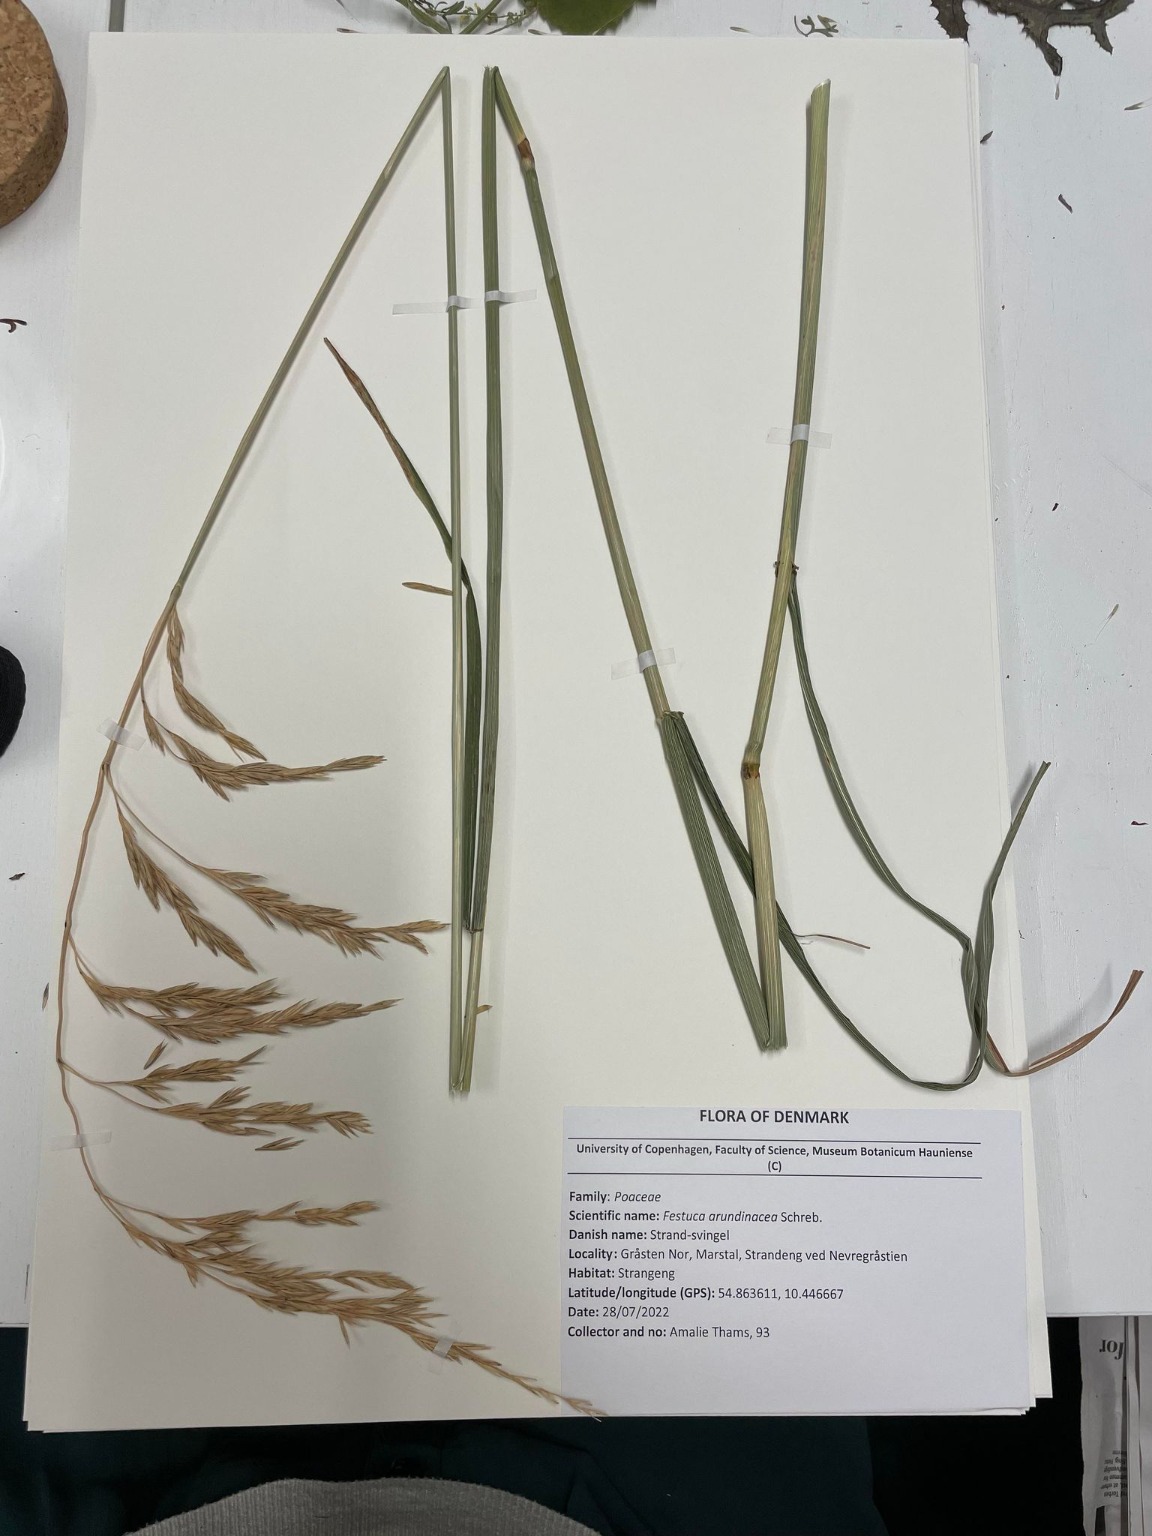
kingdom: Plantae
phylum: Tracheophyta
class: Liliopsida
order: Poales
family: Poaceae
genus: Lolium
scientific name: Lolium arundinaceum
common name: Strand-svingel
